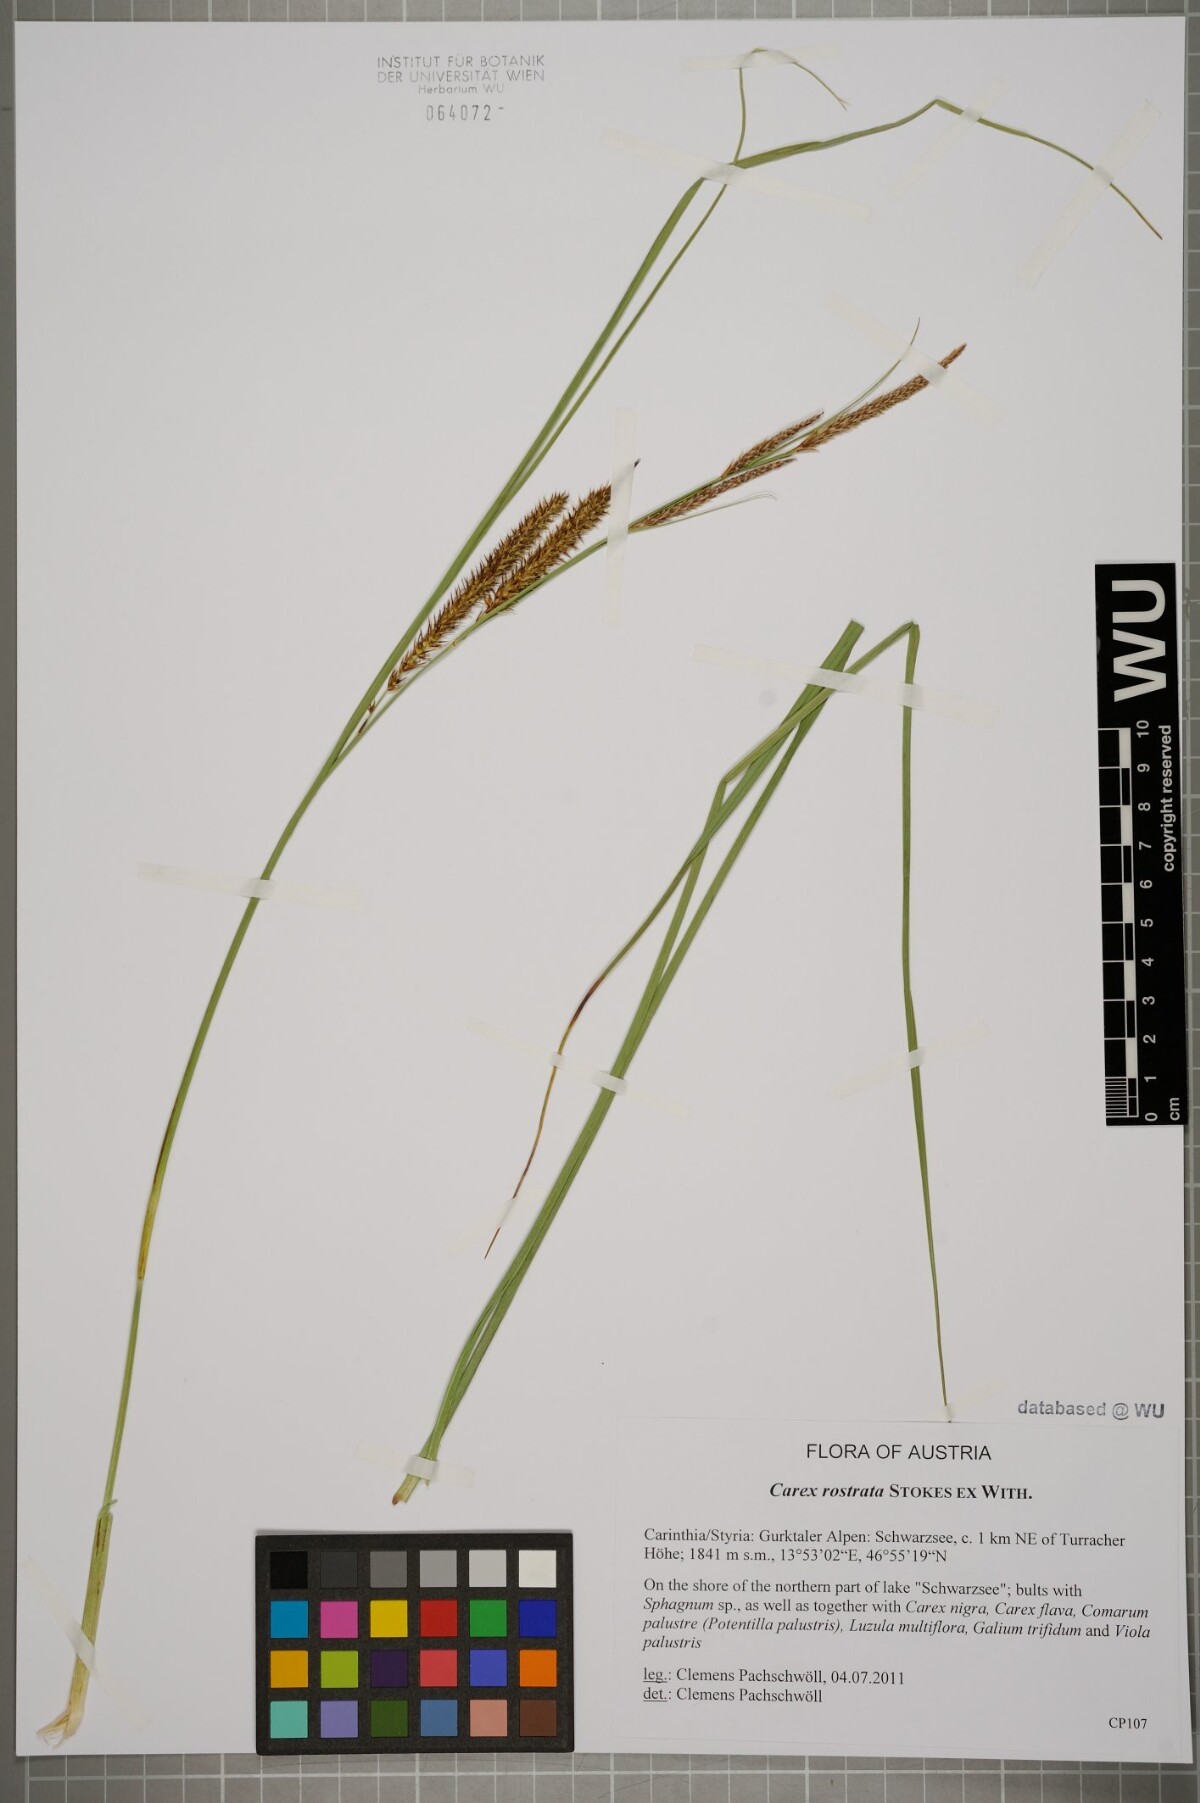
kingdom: Plantae
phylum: Tracheophyta
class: Liliopsida
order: Poales
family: Cyperaceae
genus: Carex
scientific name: Carex rostrata
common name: Bottle sedge
